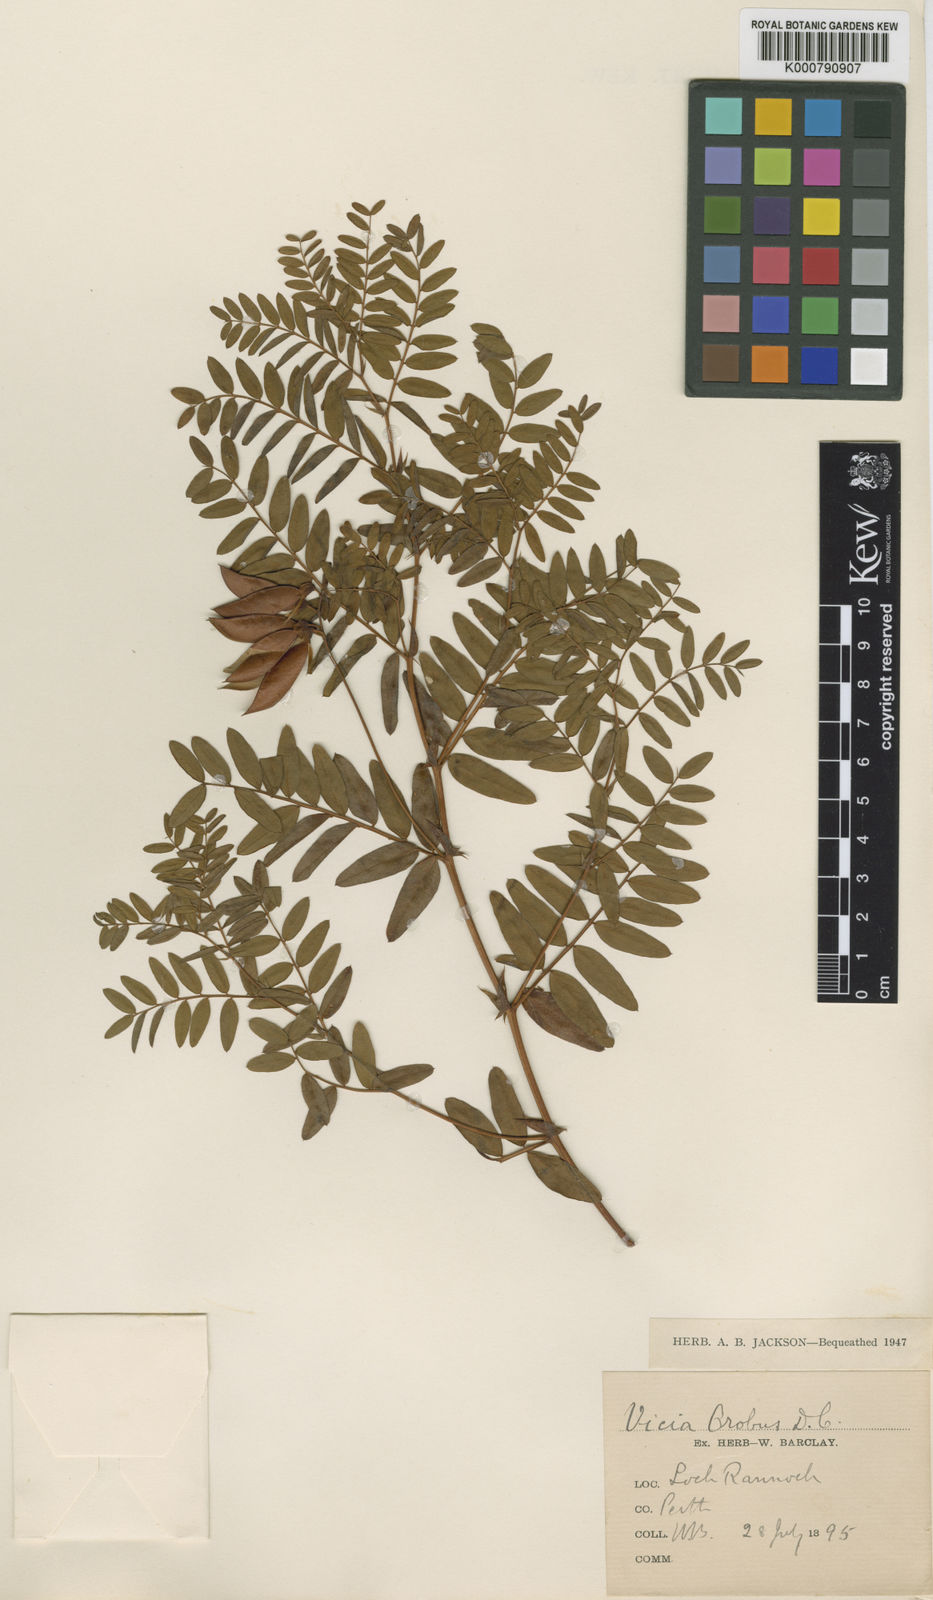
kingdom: Plantae
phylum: Tracheophyta
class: Magnoliopsida
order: Fabales
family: Fabaceae
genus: Vicia
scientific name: Vicia orobus
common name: Wood bitter-vetch
